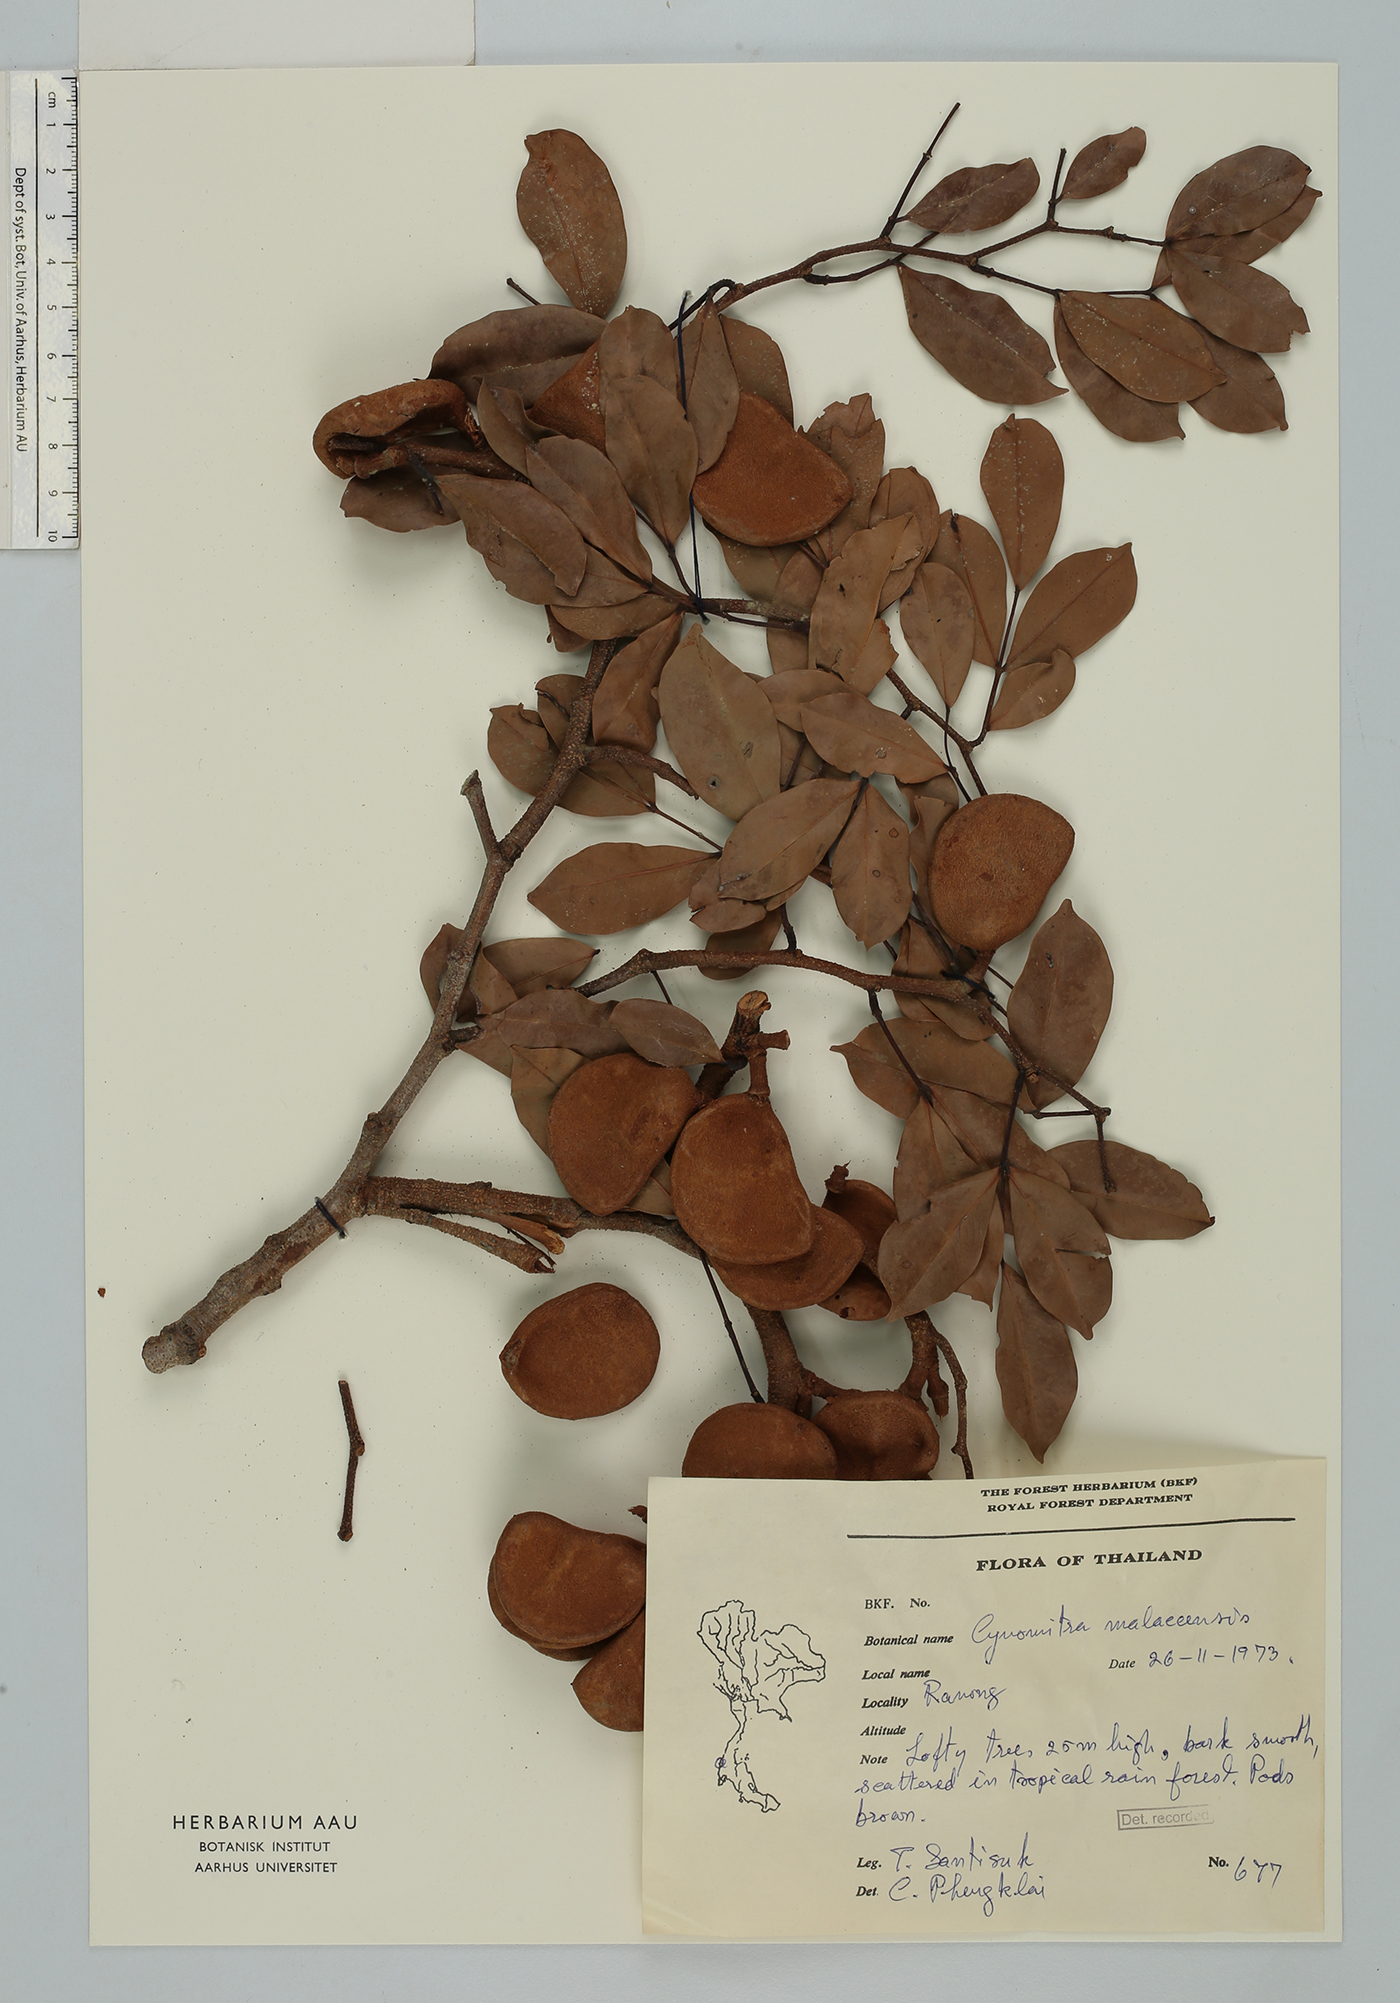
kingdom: Plantae
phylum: Tracheophyta
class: Magnoliopsida
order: Fabales
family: Fabaceae
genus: Cynometra
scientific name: Cynometra malaccensis
